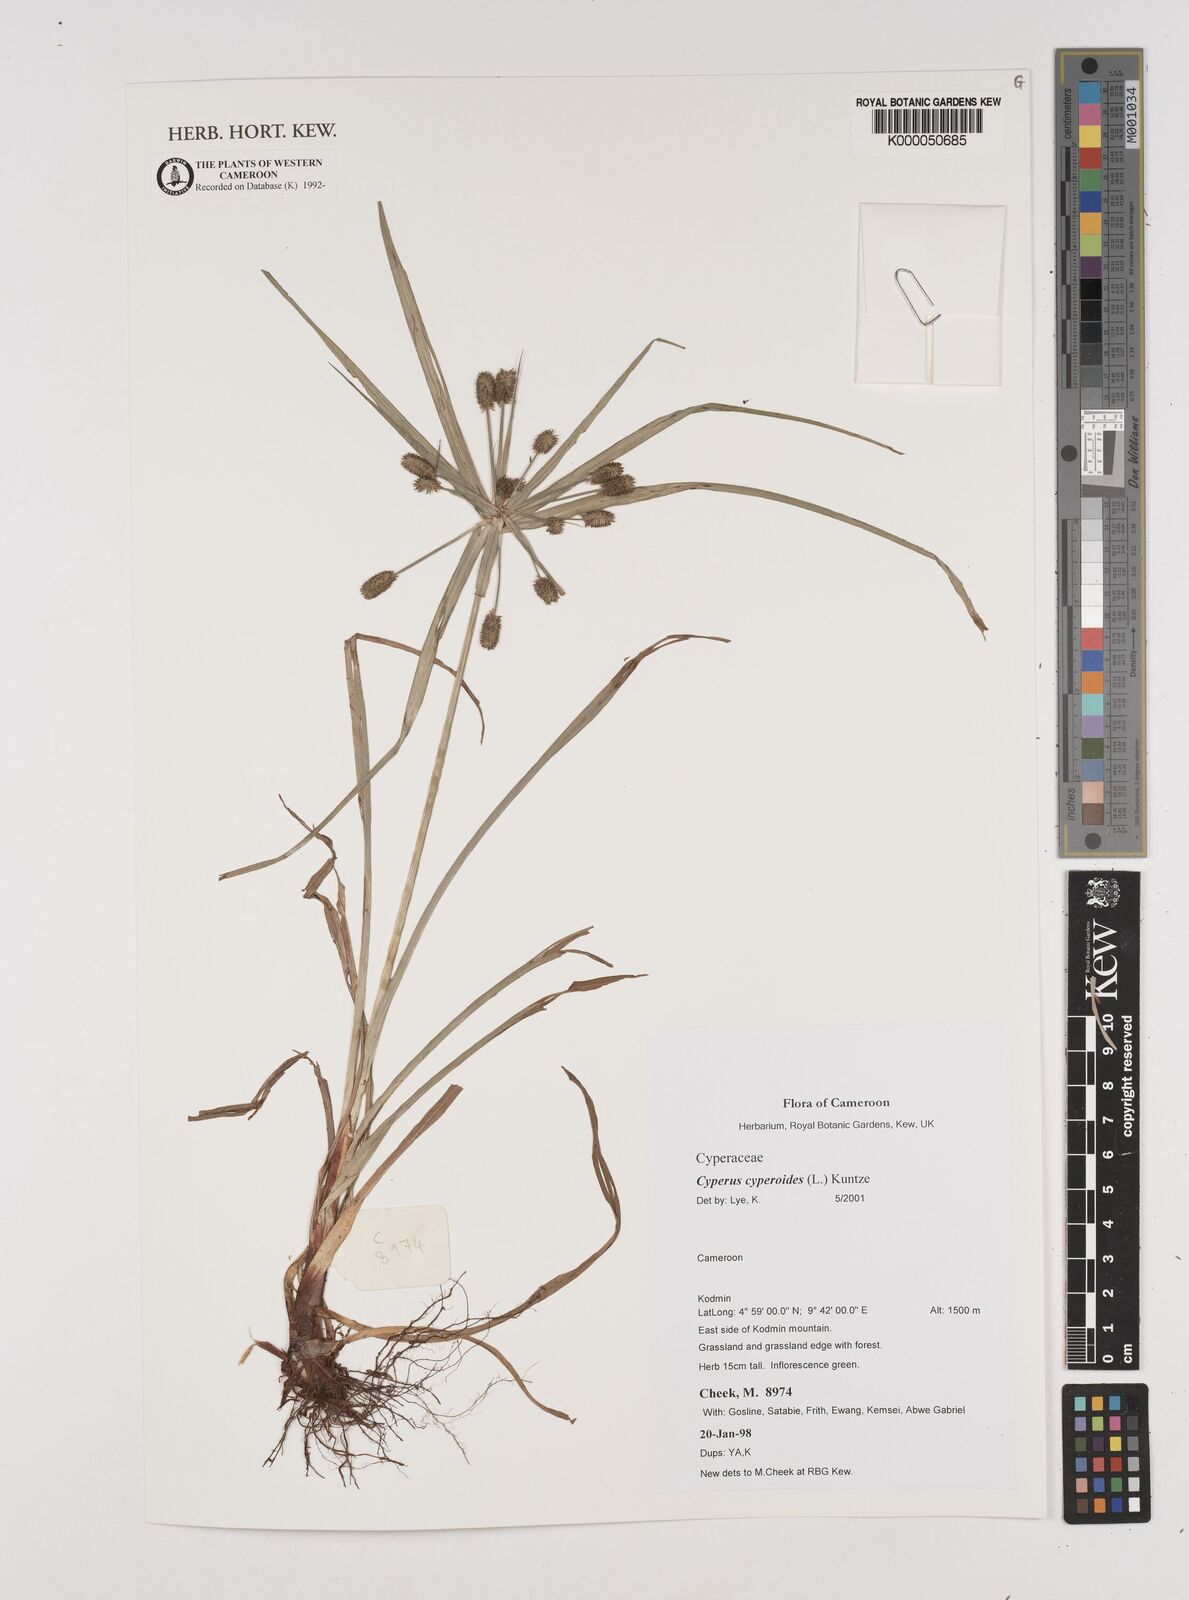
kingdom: Plantae
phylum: Tracheophyta
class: Liliopsida
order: Poales
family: Cyperaceae
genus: Cyperus
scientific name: Cyperus cyperoides
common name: Pacific island flat sedge
